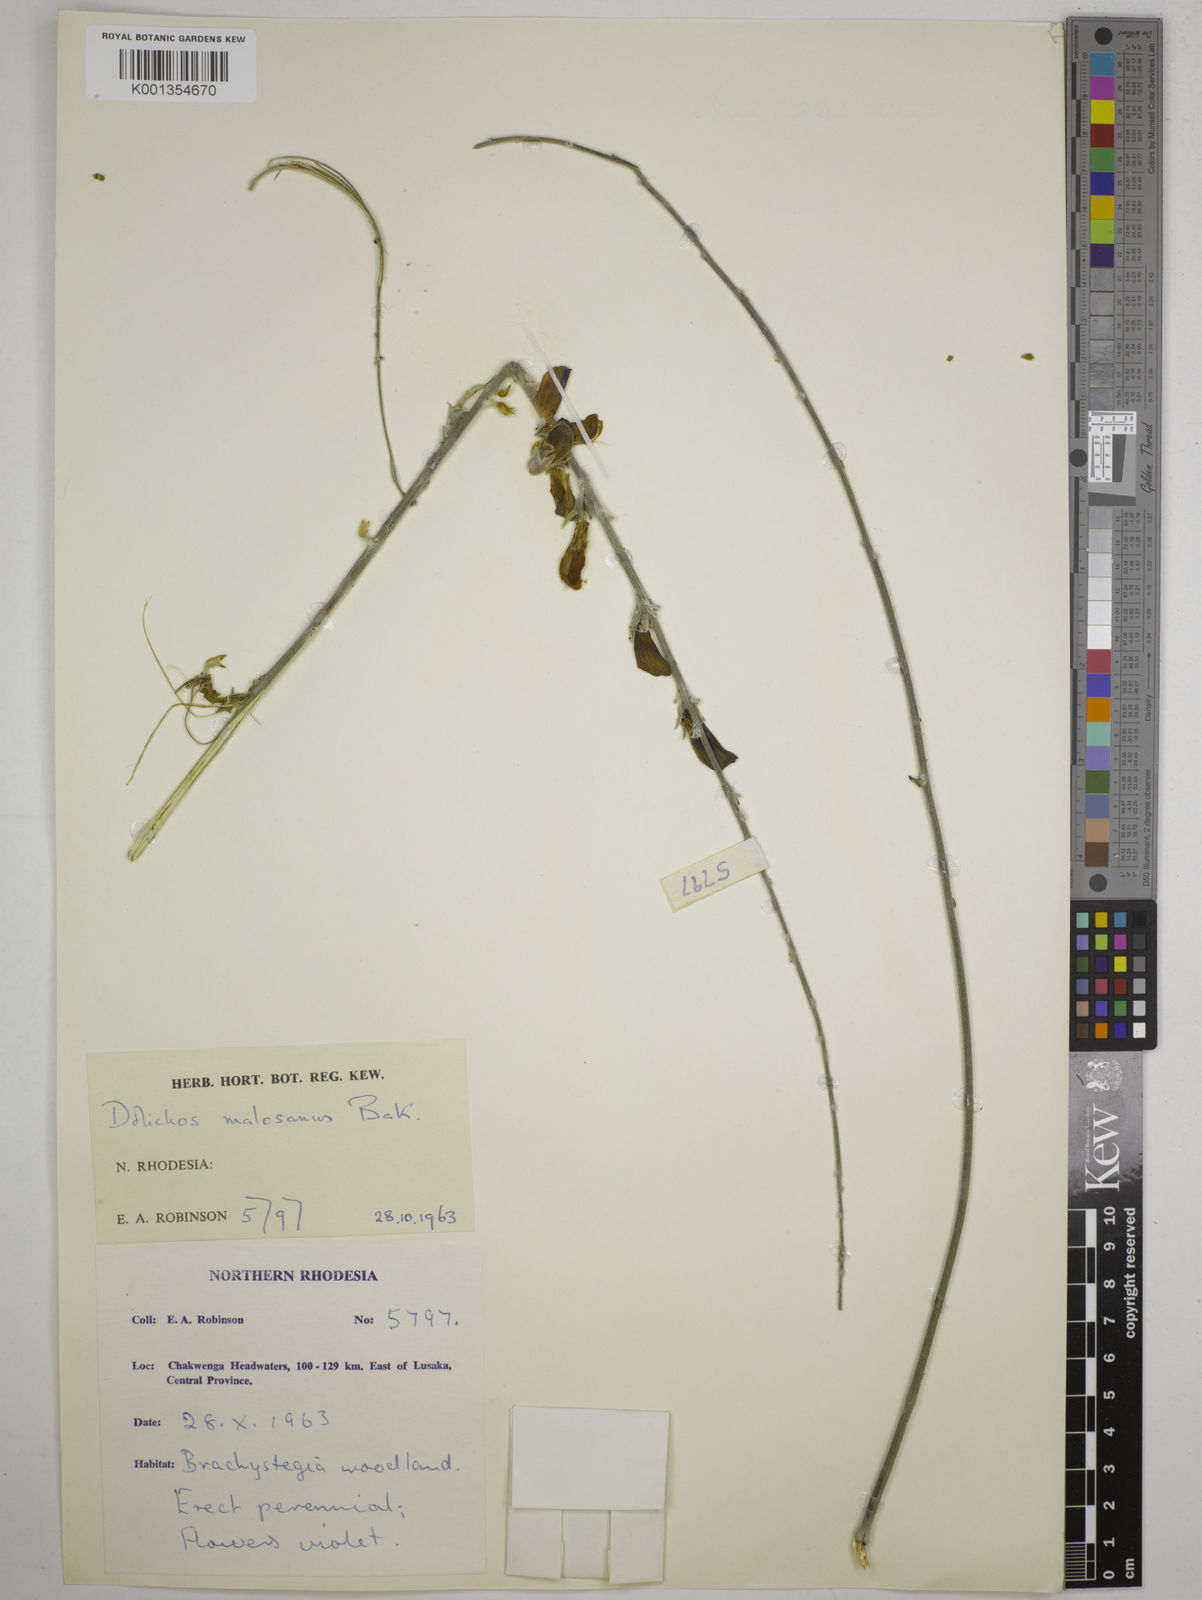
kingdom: Plantae
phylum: Tracheophyta
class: Magnoliopsida
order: Fabales
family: Fabaceae
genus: Dolichos
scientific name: Dolichos kilimandscharicus
